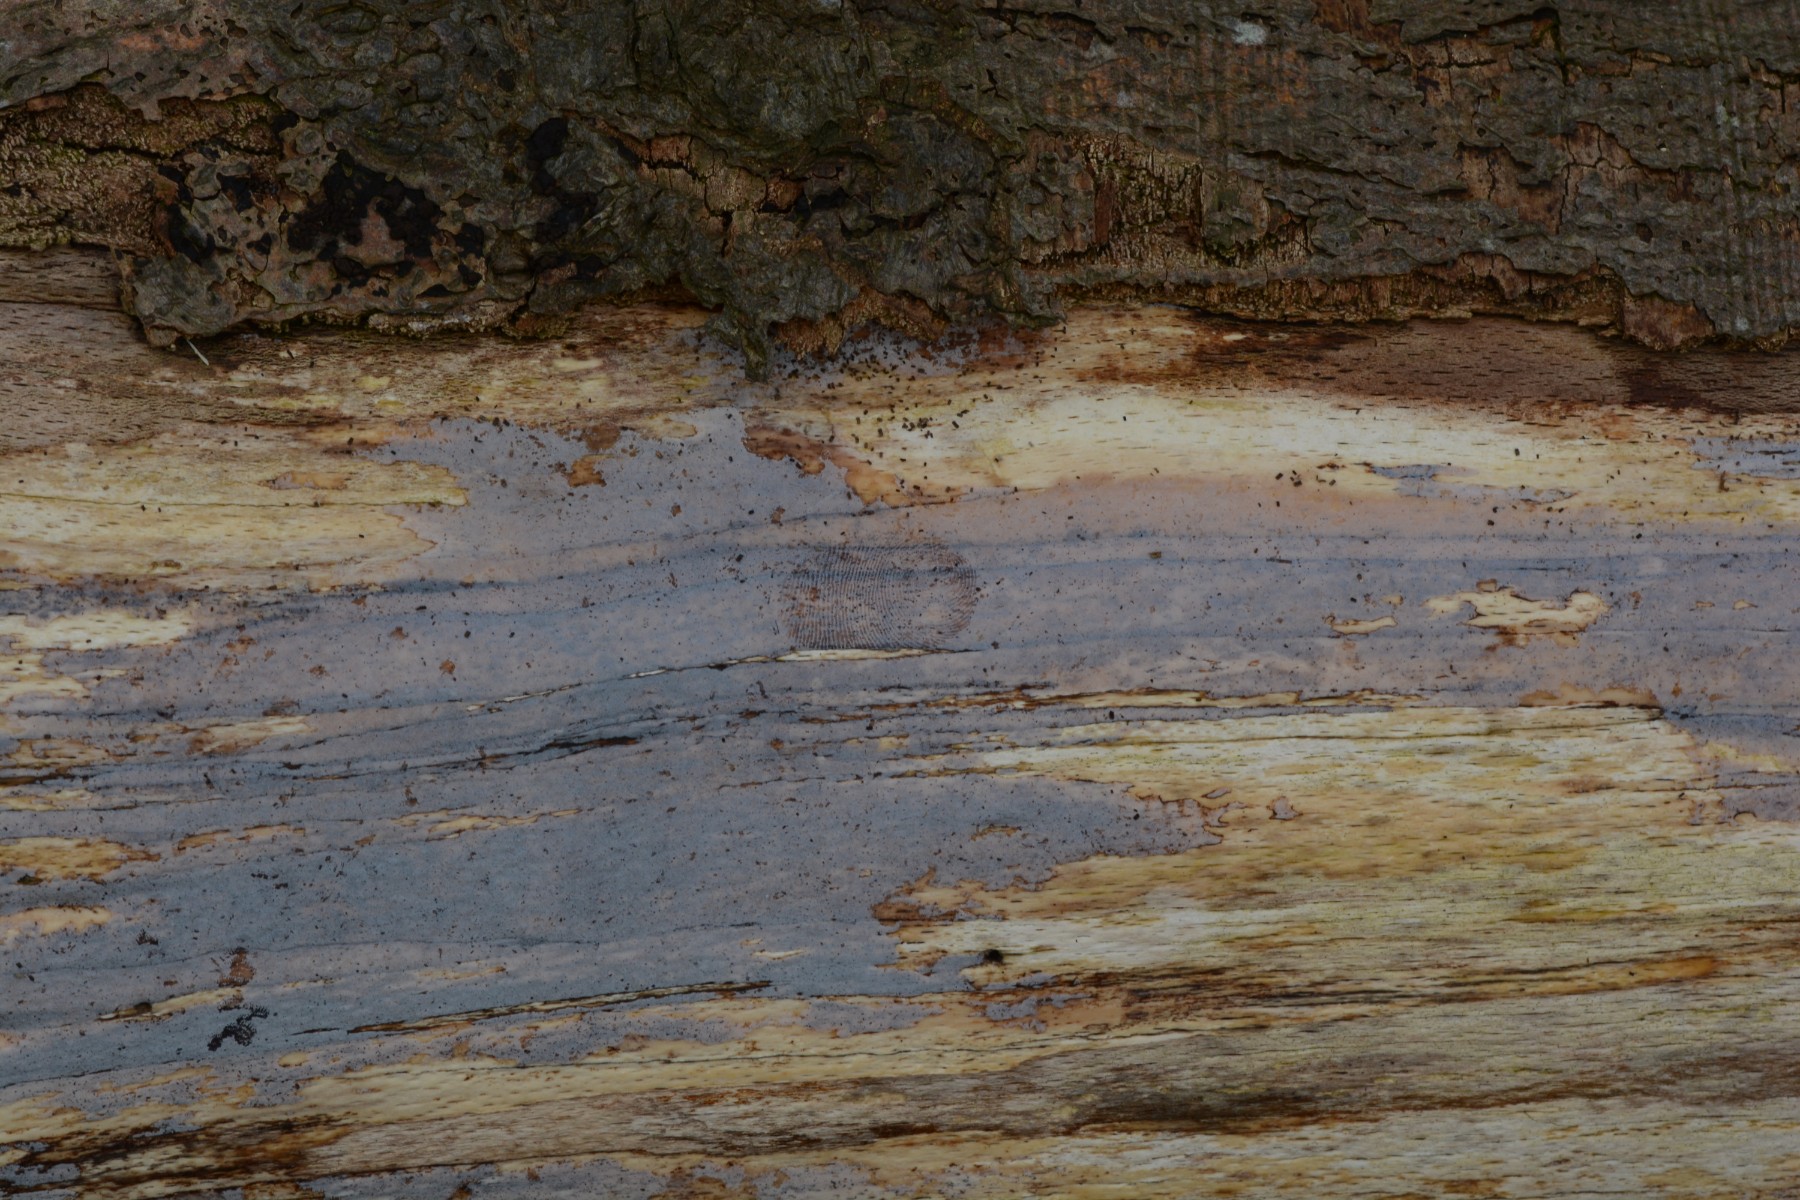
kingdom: Fungi
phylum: Basidiomycota
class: Tremellomycetes
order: Tremellales
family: Exidiaceae
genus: Exidiopsis
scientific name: Exidiopsis effusa
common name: smuk bævrehinde
